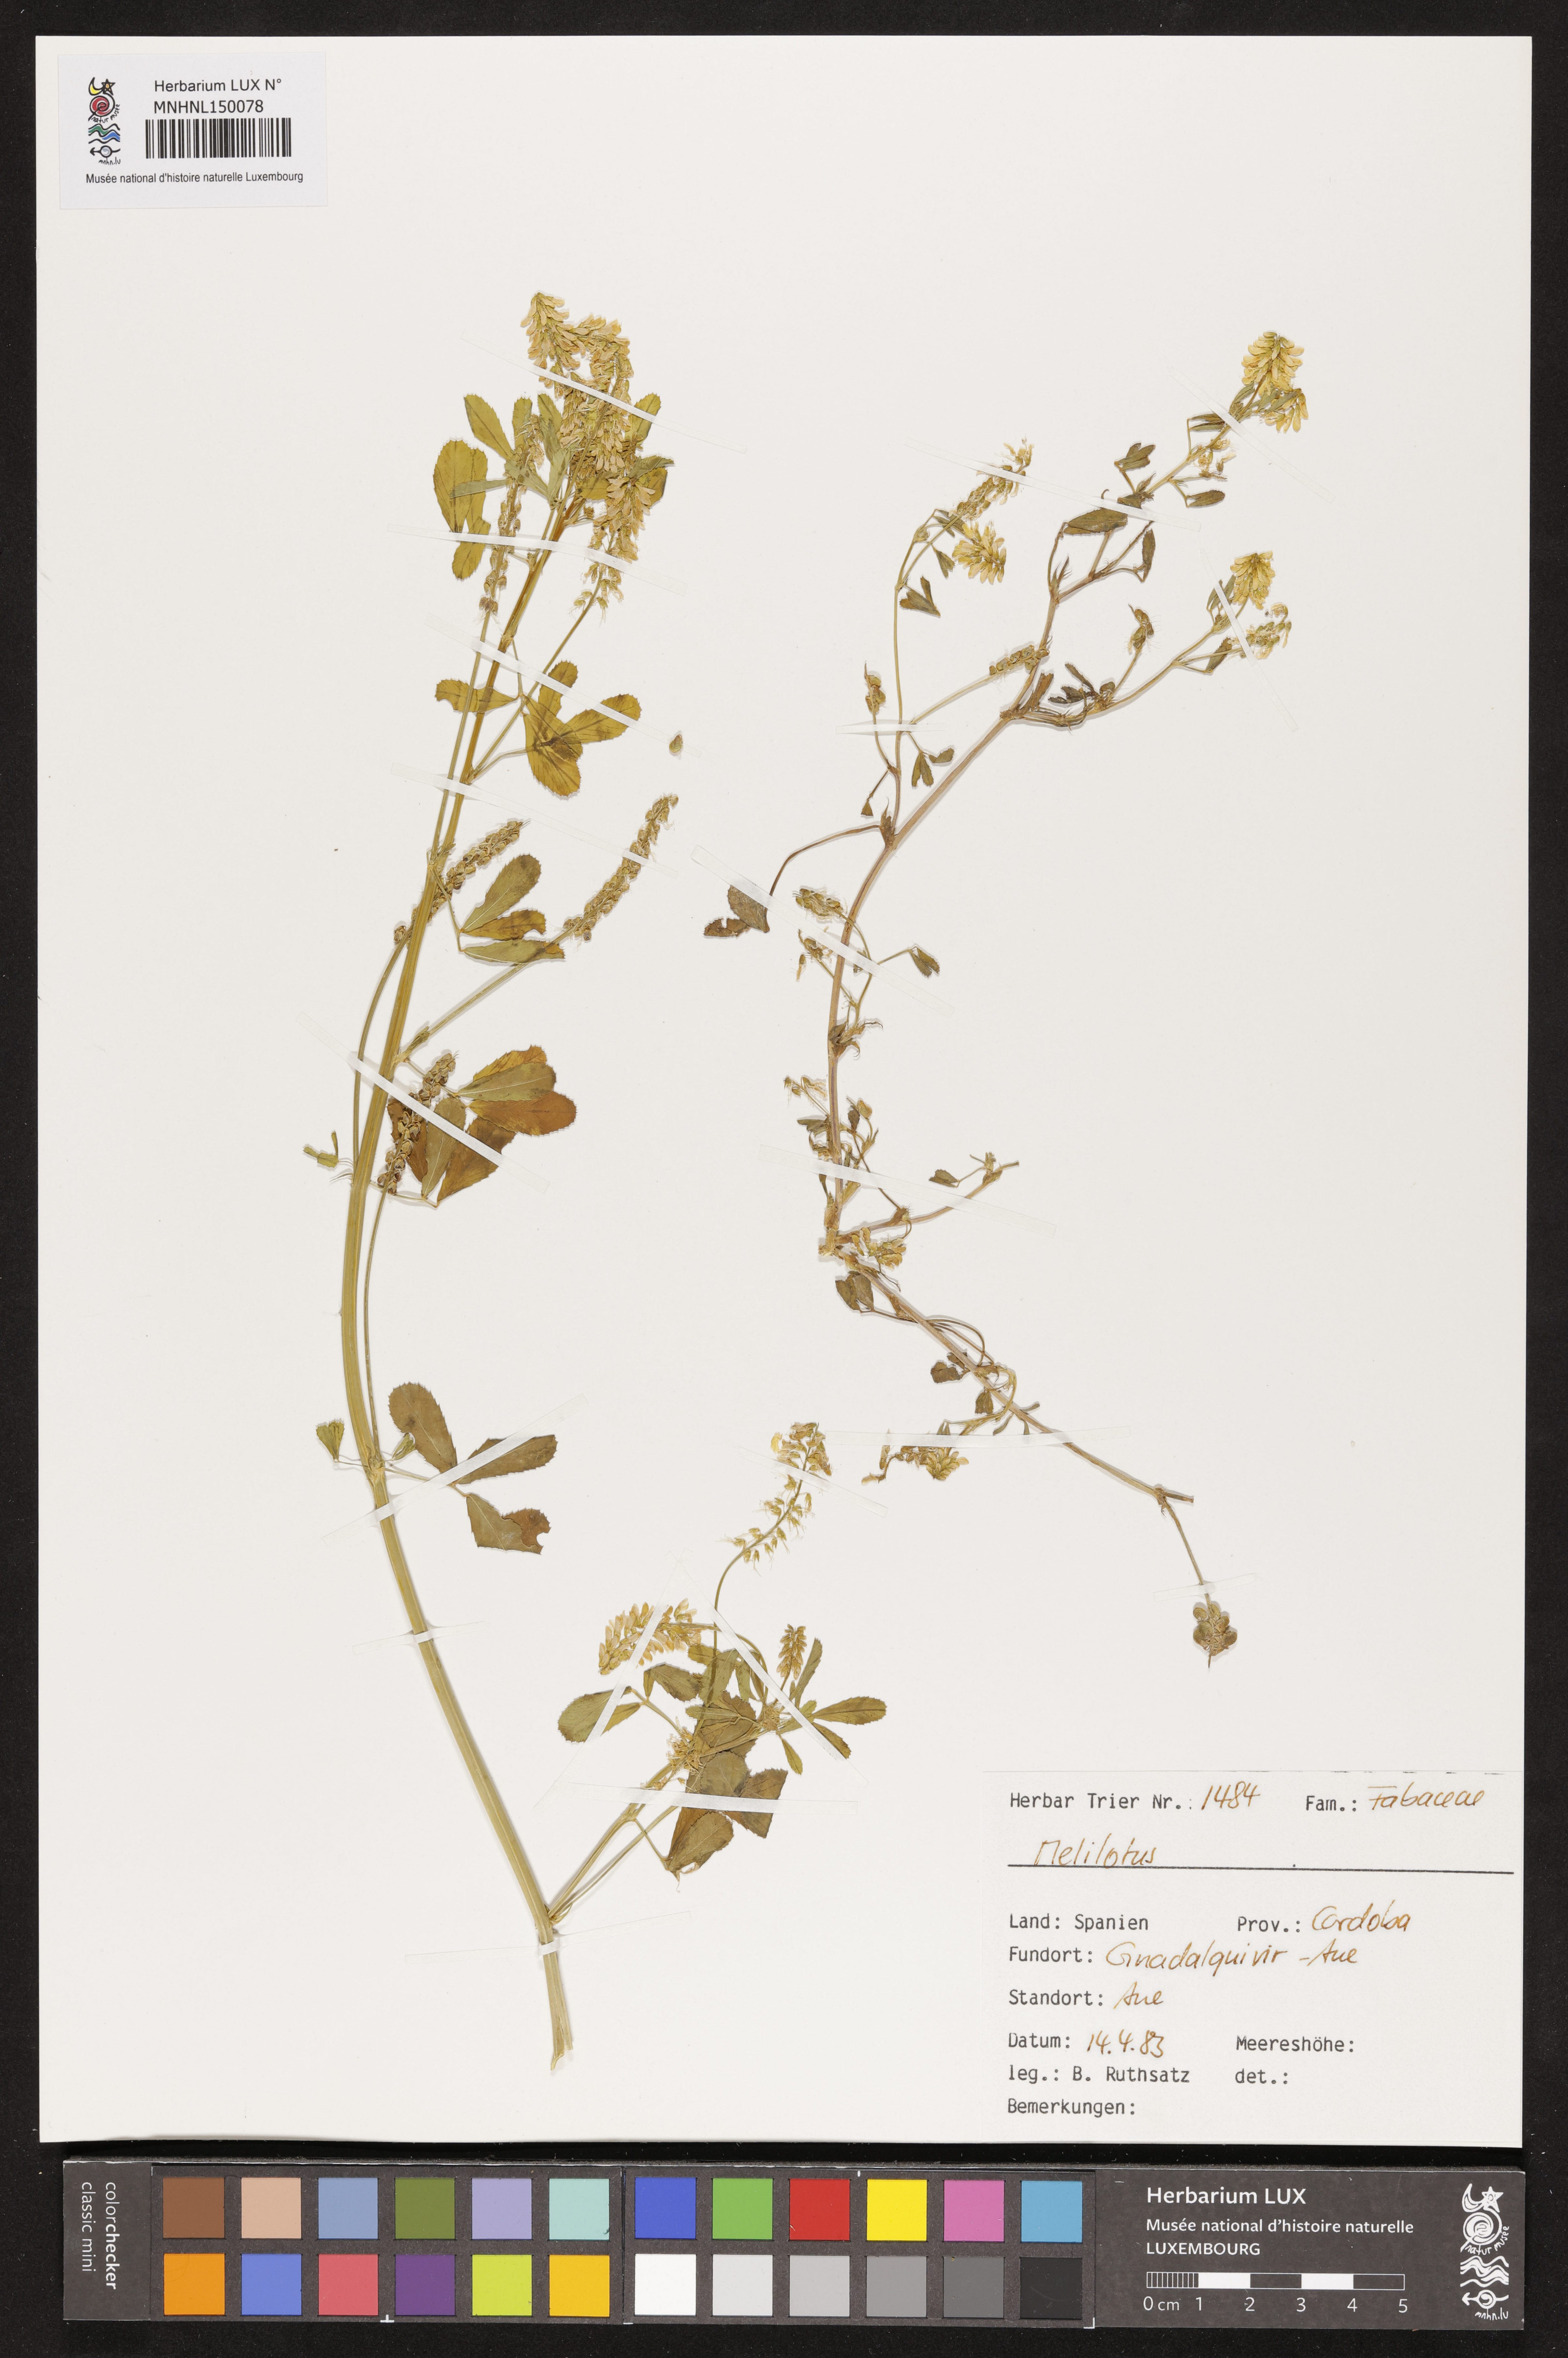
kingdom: Plantae
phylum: Tracheophyta
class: Magnoliopsida
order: Fabales
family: Fabaceae
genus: Melilotus
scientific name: Melilotus
